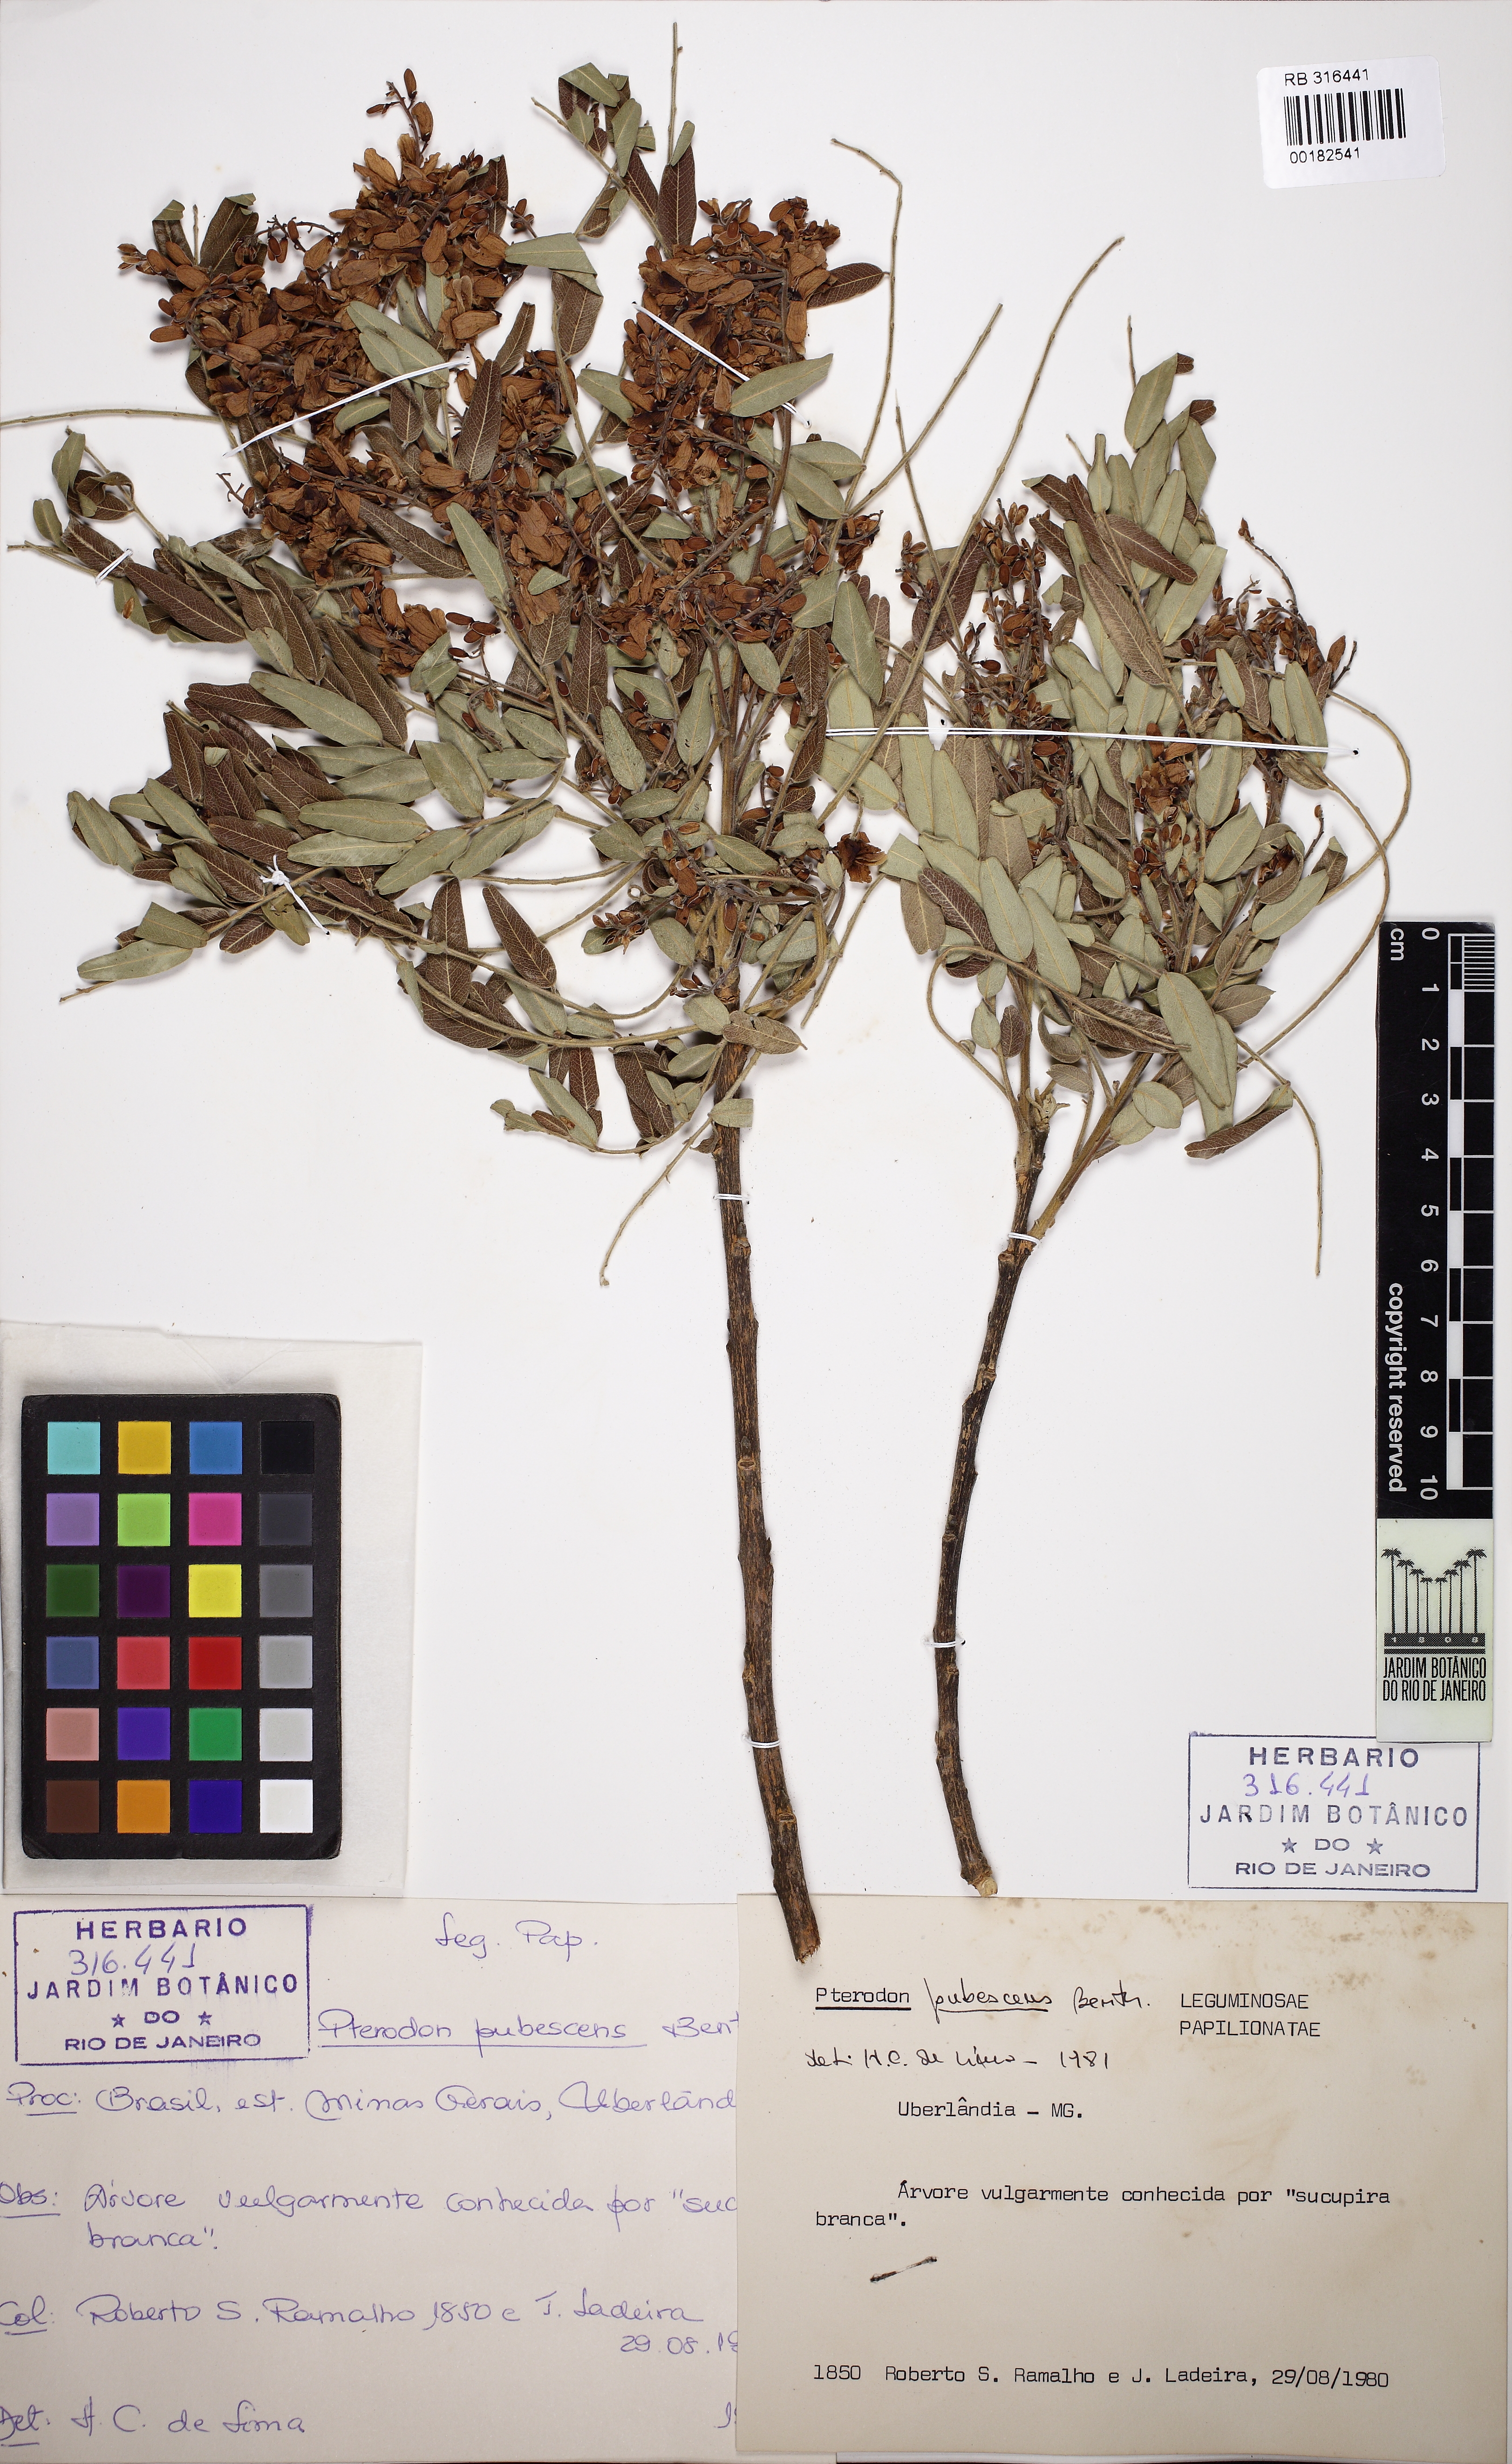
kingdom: Plantae
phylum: Tracheophyta
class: Magnoliopsida
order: Fabales
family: Fabaceae
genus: Pterodon
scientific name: Pterodon emarginatus
